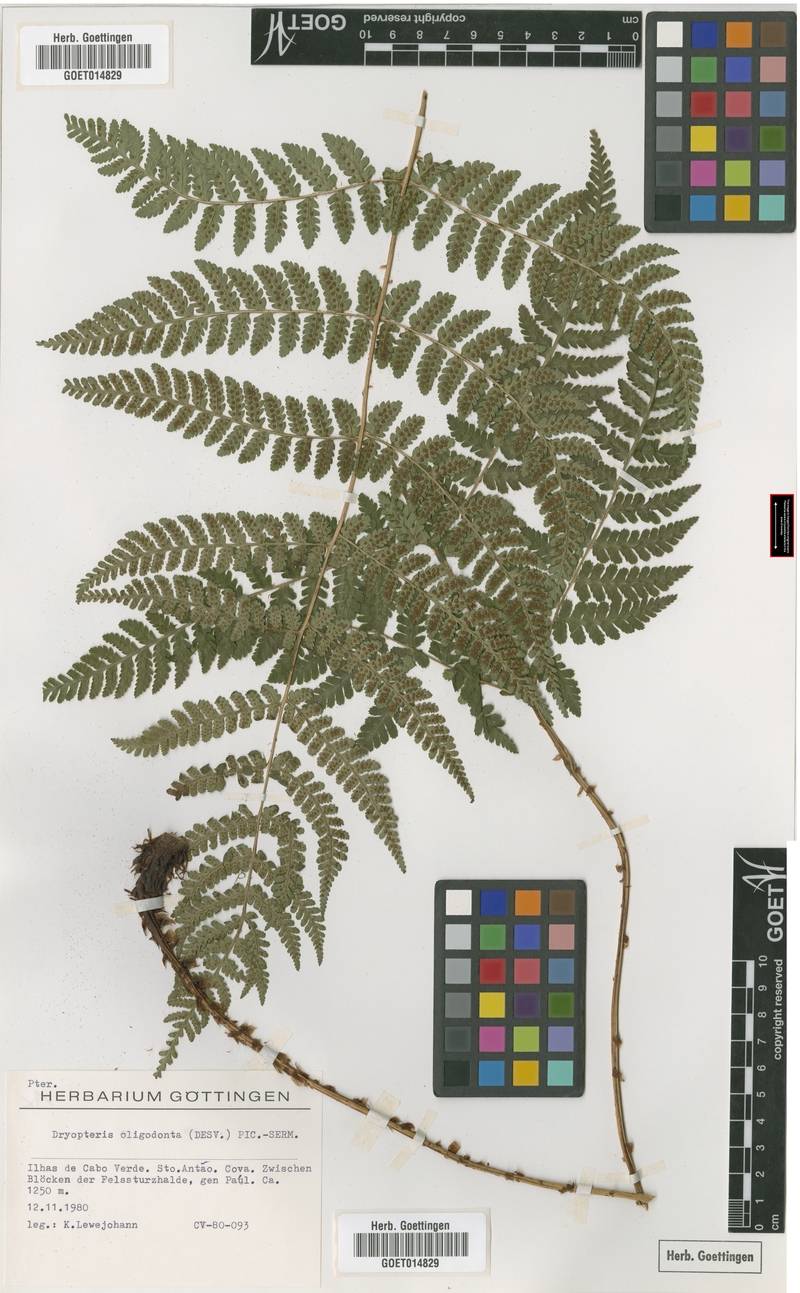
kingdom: Plantae
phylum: Tracheophyta
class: Polypodiopsida
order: Polypodiales
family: Dryopteridaceae
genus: Dryopteris
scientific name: Dryopteris oligodonta
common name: Canarian male-fern
